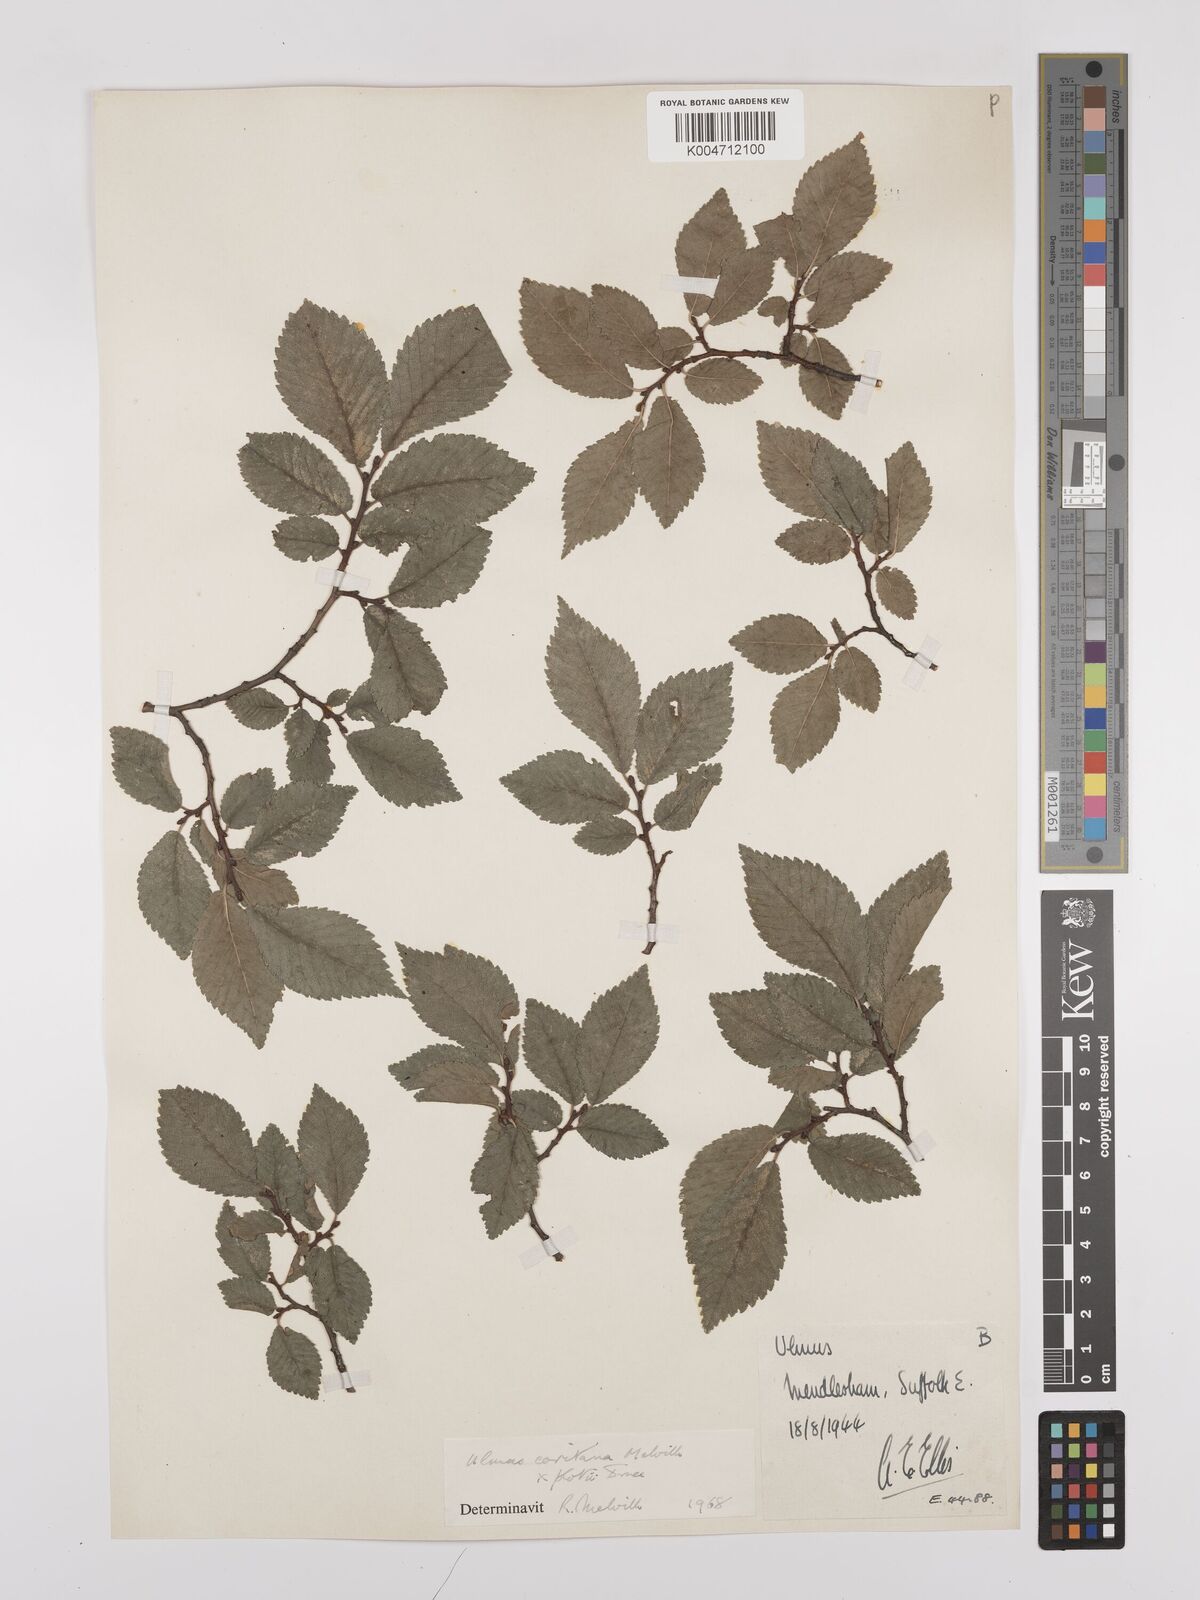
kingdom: Plantae
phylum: Tracheophyta
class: Magnoliopsida
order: Rosales
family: Ulmaceae
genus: Ulmus
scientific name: Ulmus minor
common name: Small-leaved elm
